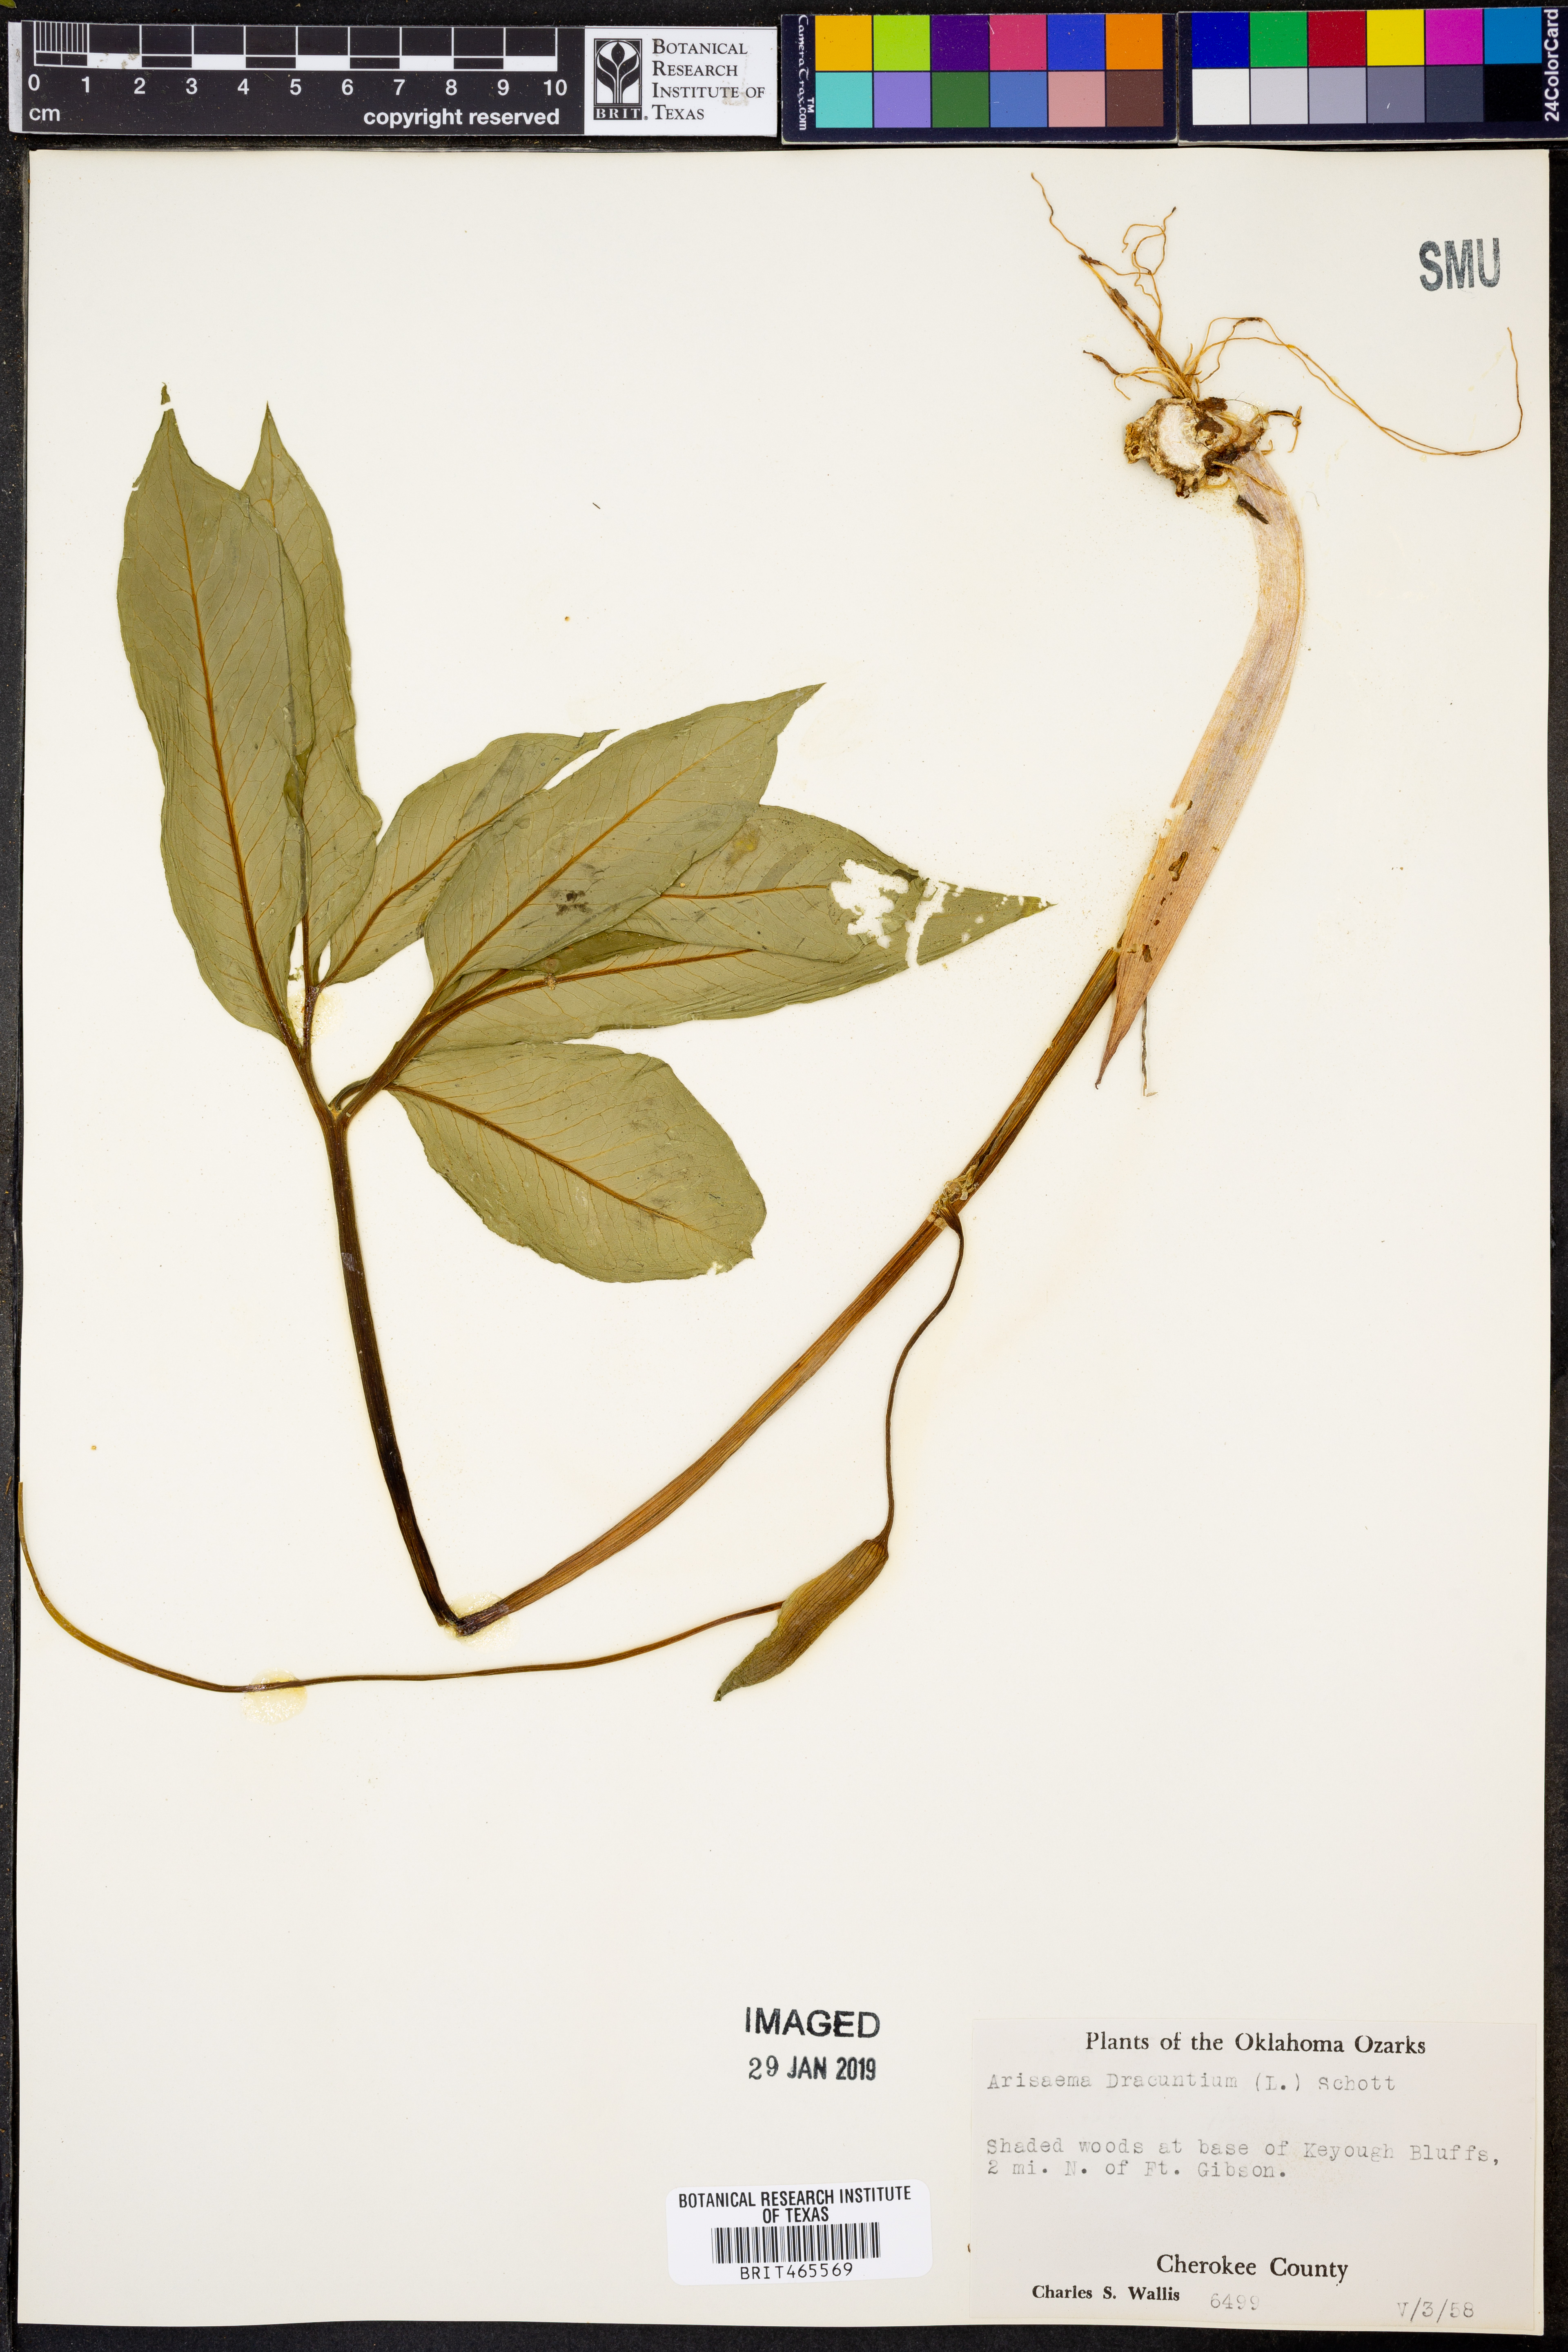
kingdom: Plantae
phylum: Tracheophyta
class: Liliopsida
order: Alismatales
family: Araceae
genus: Arisaema
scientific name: Arisaema dracontium
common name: Dragon-arum
